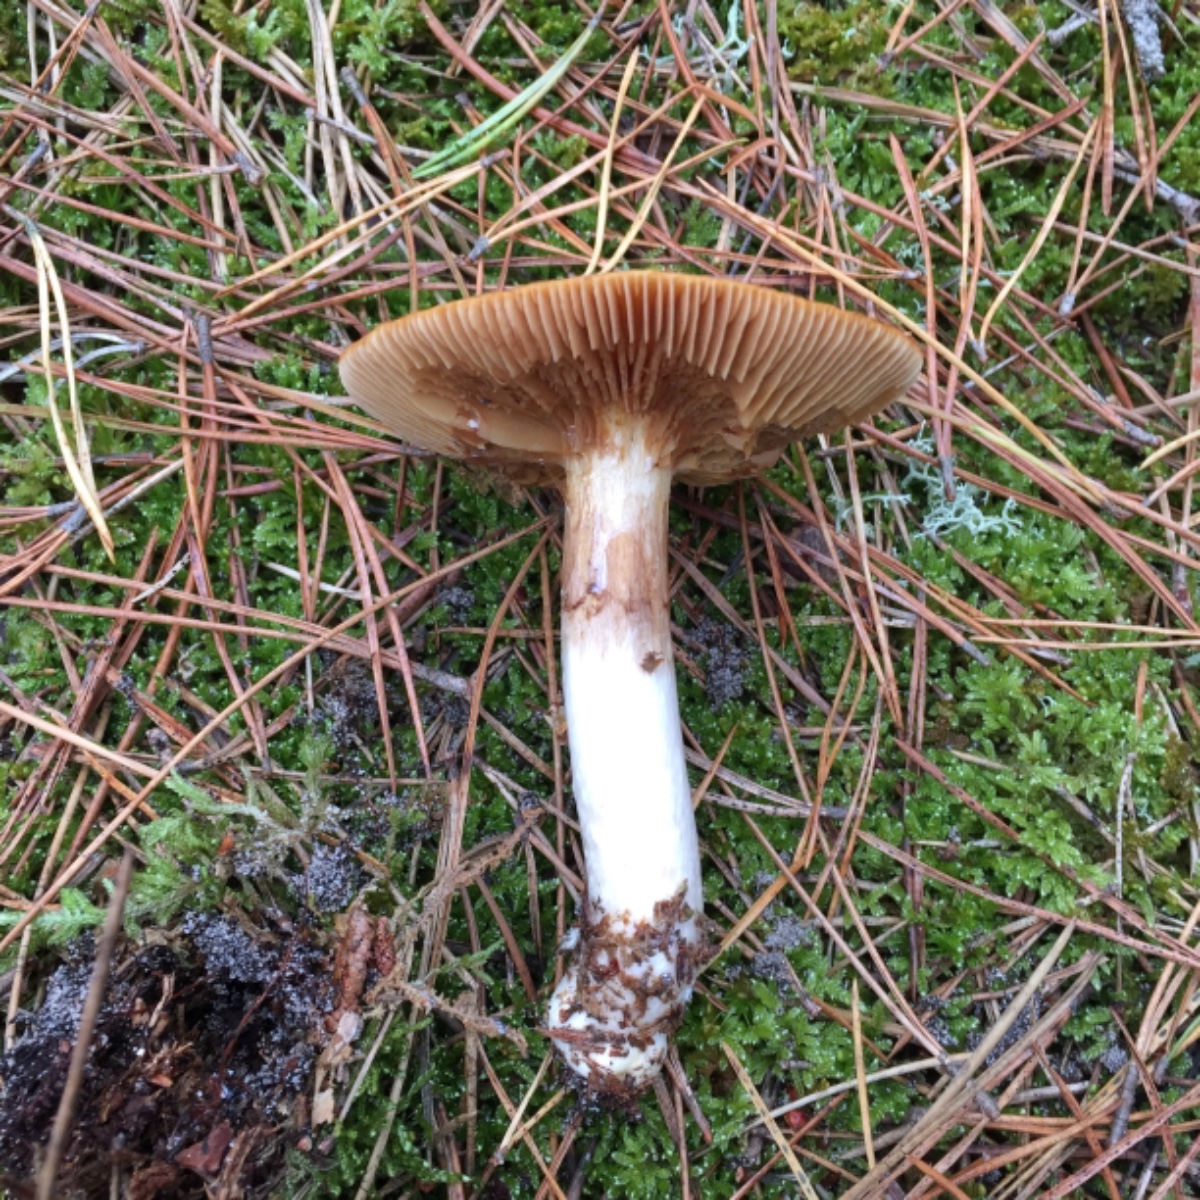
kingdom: Fungi
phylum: Basidiomycota
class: Agaricomycetes
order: Agaricales
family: Cortinariaceae
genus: Cortinarius
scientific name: Cortinarius mucosus
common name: kastaniebrun slørhat
